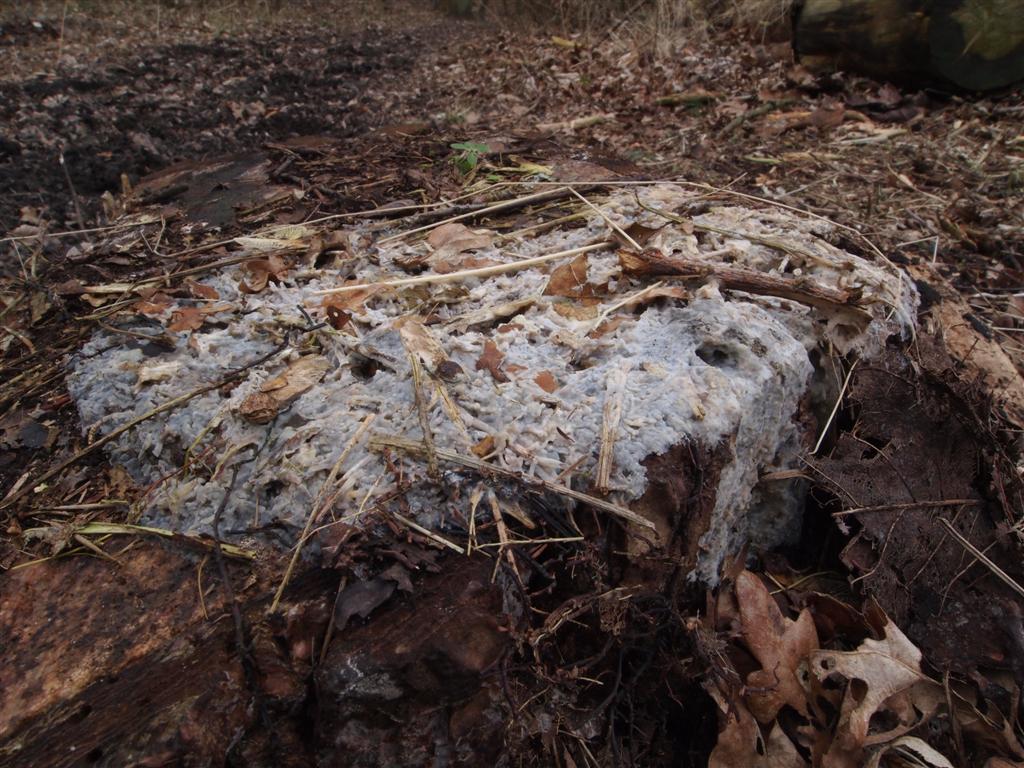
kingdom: Fungi
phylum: Basidiomycota
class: Agaricomycetes
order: Polyporales
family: Meruliaceae
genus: Physisporinus
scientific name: Physisporinus vitreus
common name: mastesvamp
